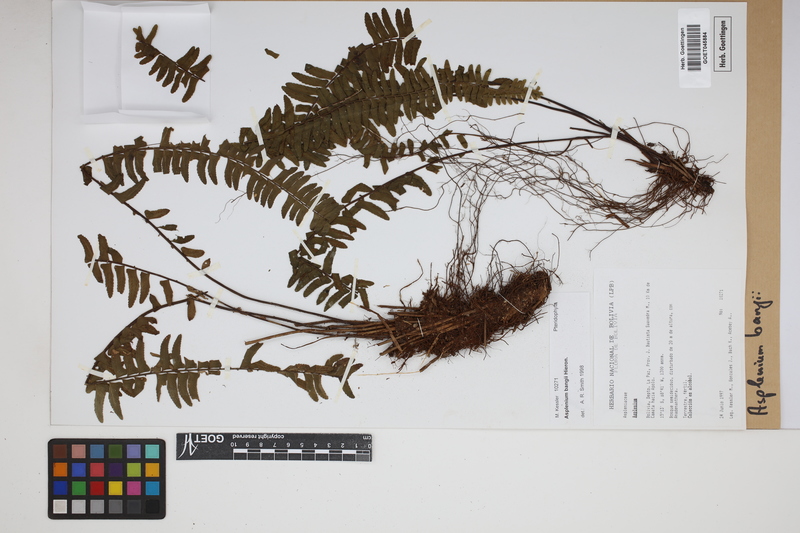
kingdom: Plantae
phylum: Tracheophyta
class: Polypodiopsida
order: Polypodiales
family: Aspleniaceae
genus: Asplenium
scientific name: Asplenium bangii
